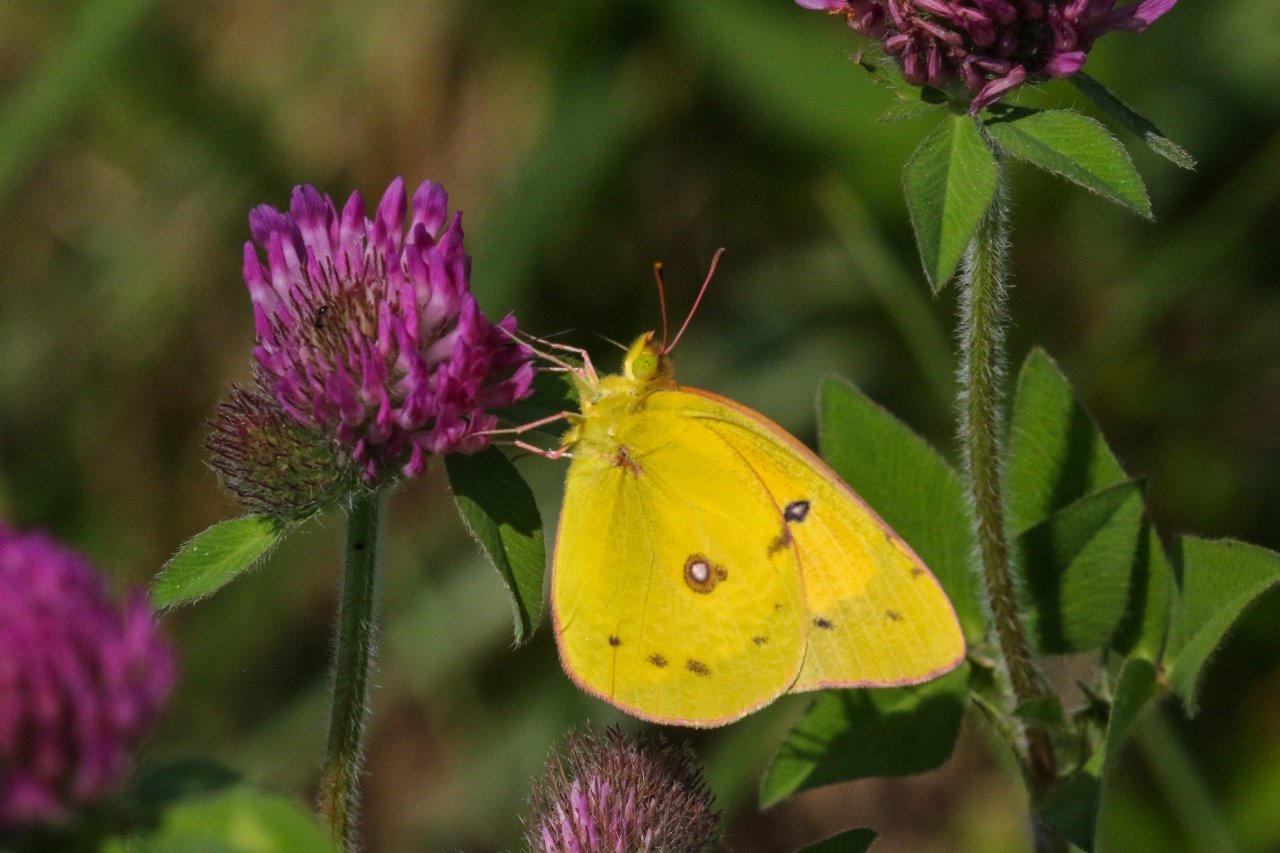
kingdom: Animalia
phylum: Arthropoda
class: Insecta
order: Lepidoptera
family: Pieridae
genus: Colias
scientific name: Colias eurytheme
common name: Orange Sulphur
